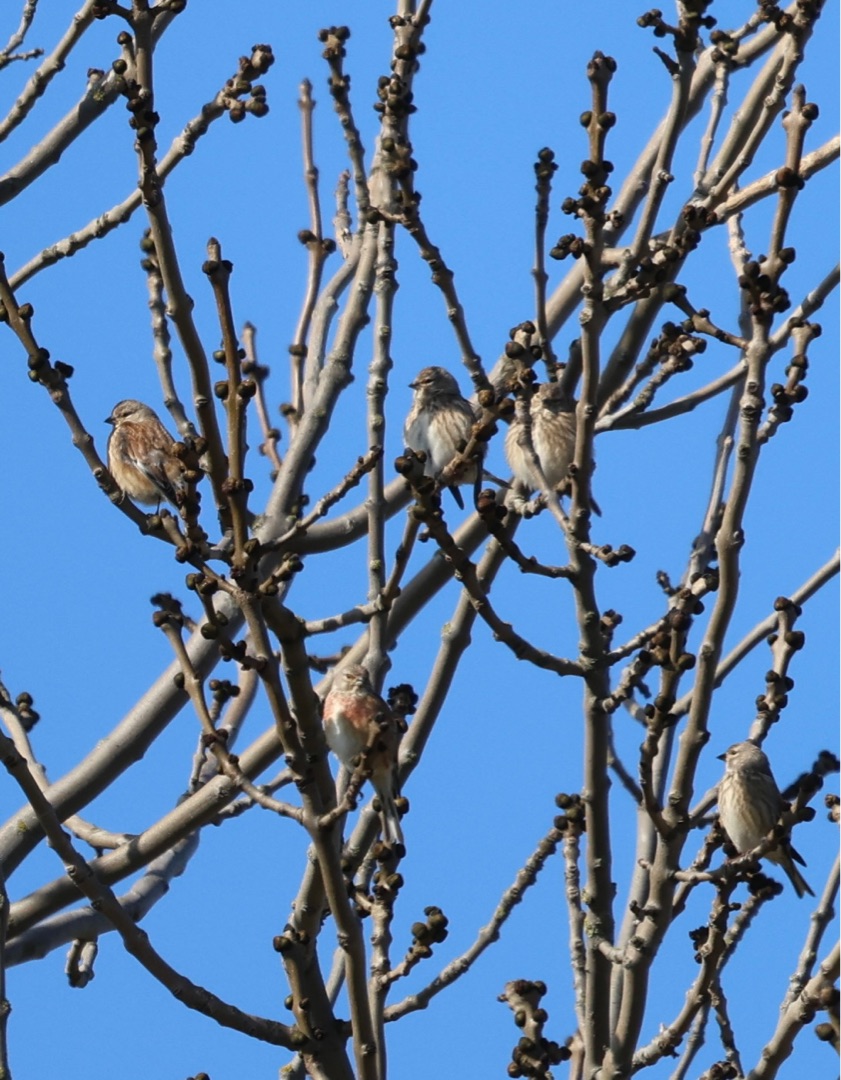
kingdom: Animalia
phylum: Chordata
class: Aves
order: Passeriformes
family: Fringillidae
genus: Linaria
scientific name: Linaria cannabina
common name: Tornirisk
